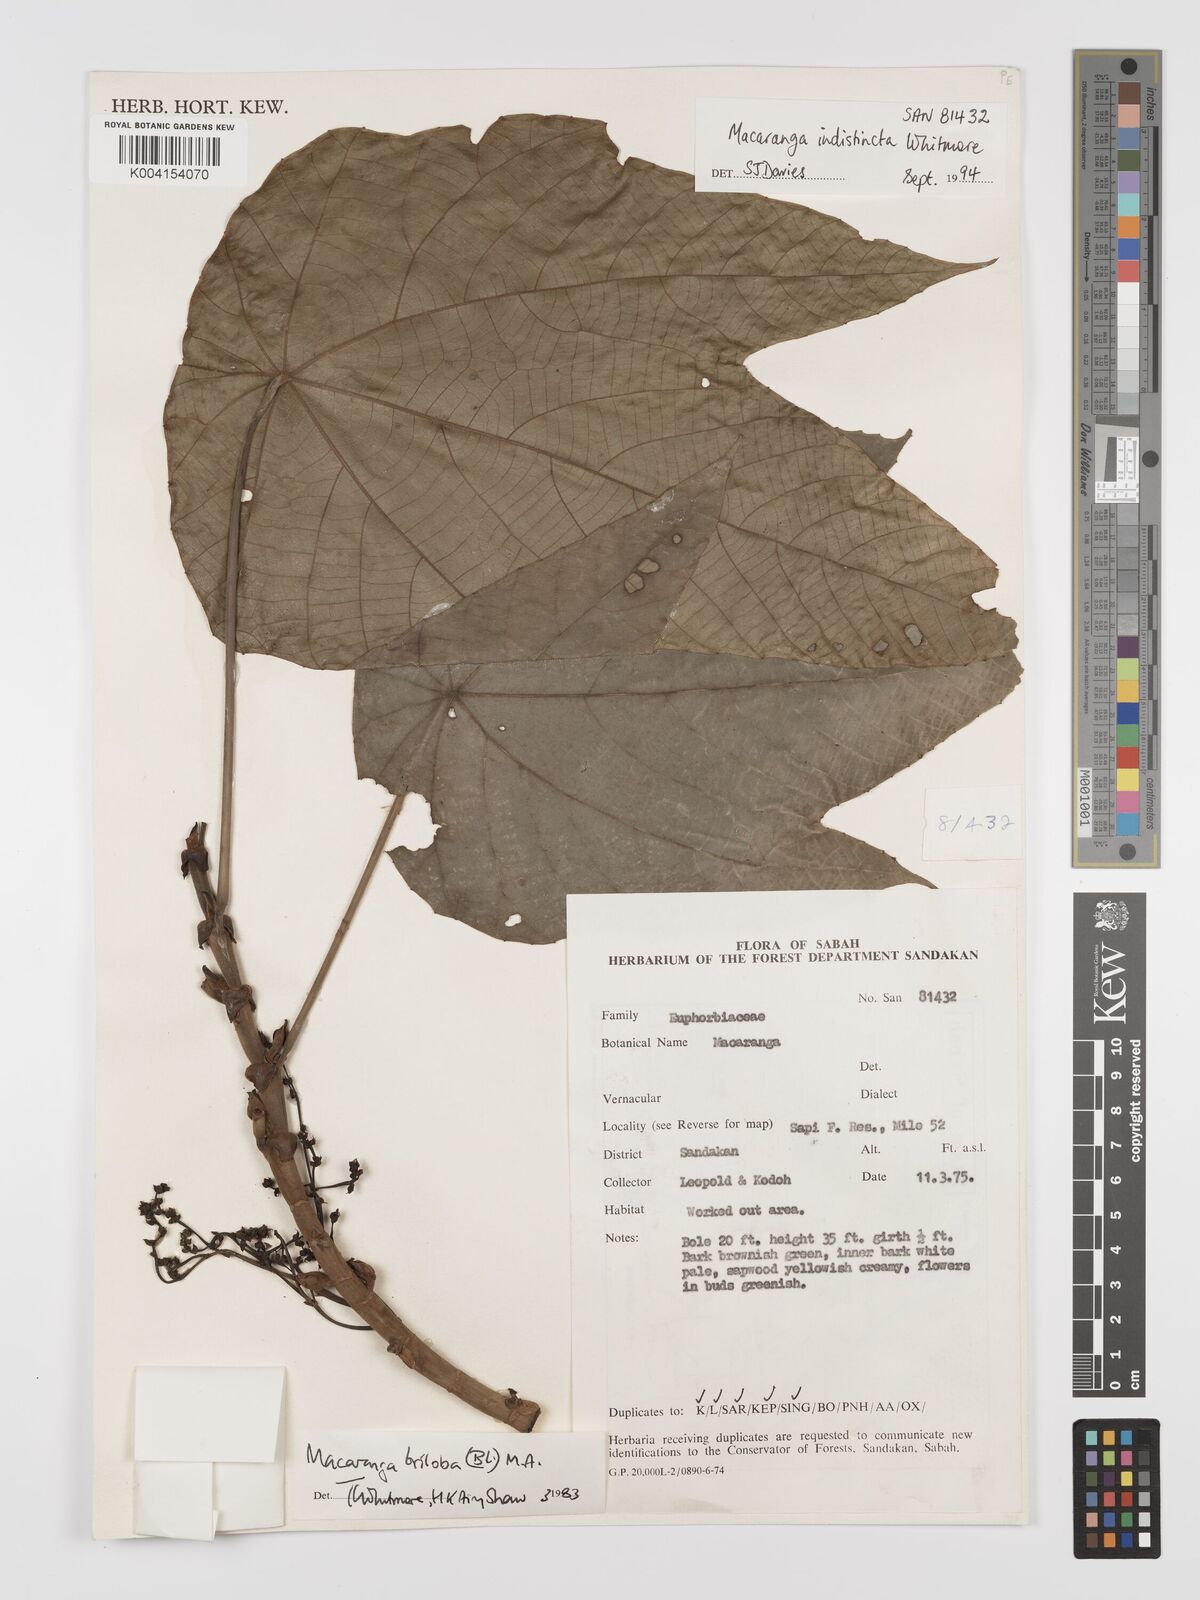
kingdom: Plantae
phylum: Tracheophyta
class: Magnoliopsida
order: Malpighiales
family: Euphorbiaceae
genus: Macaranga
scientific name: Macaranga indistincta
